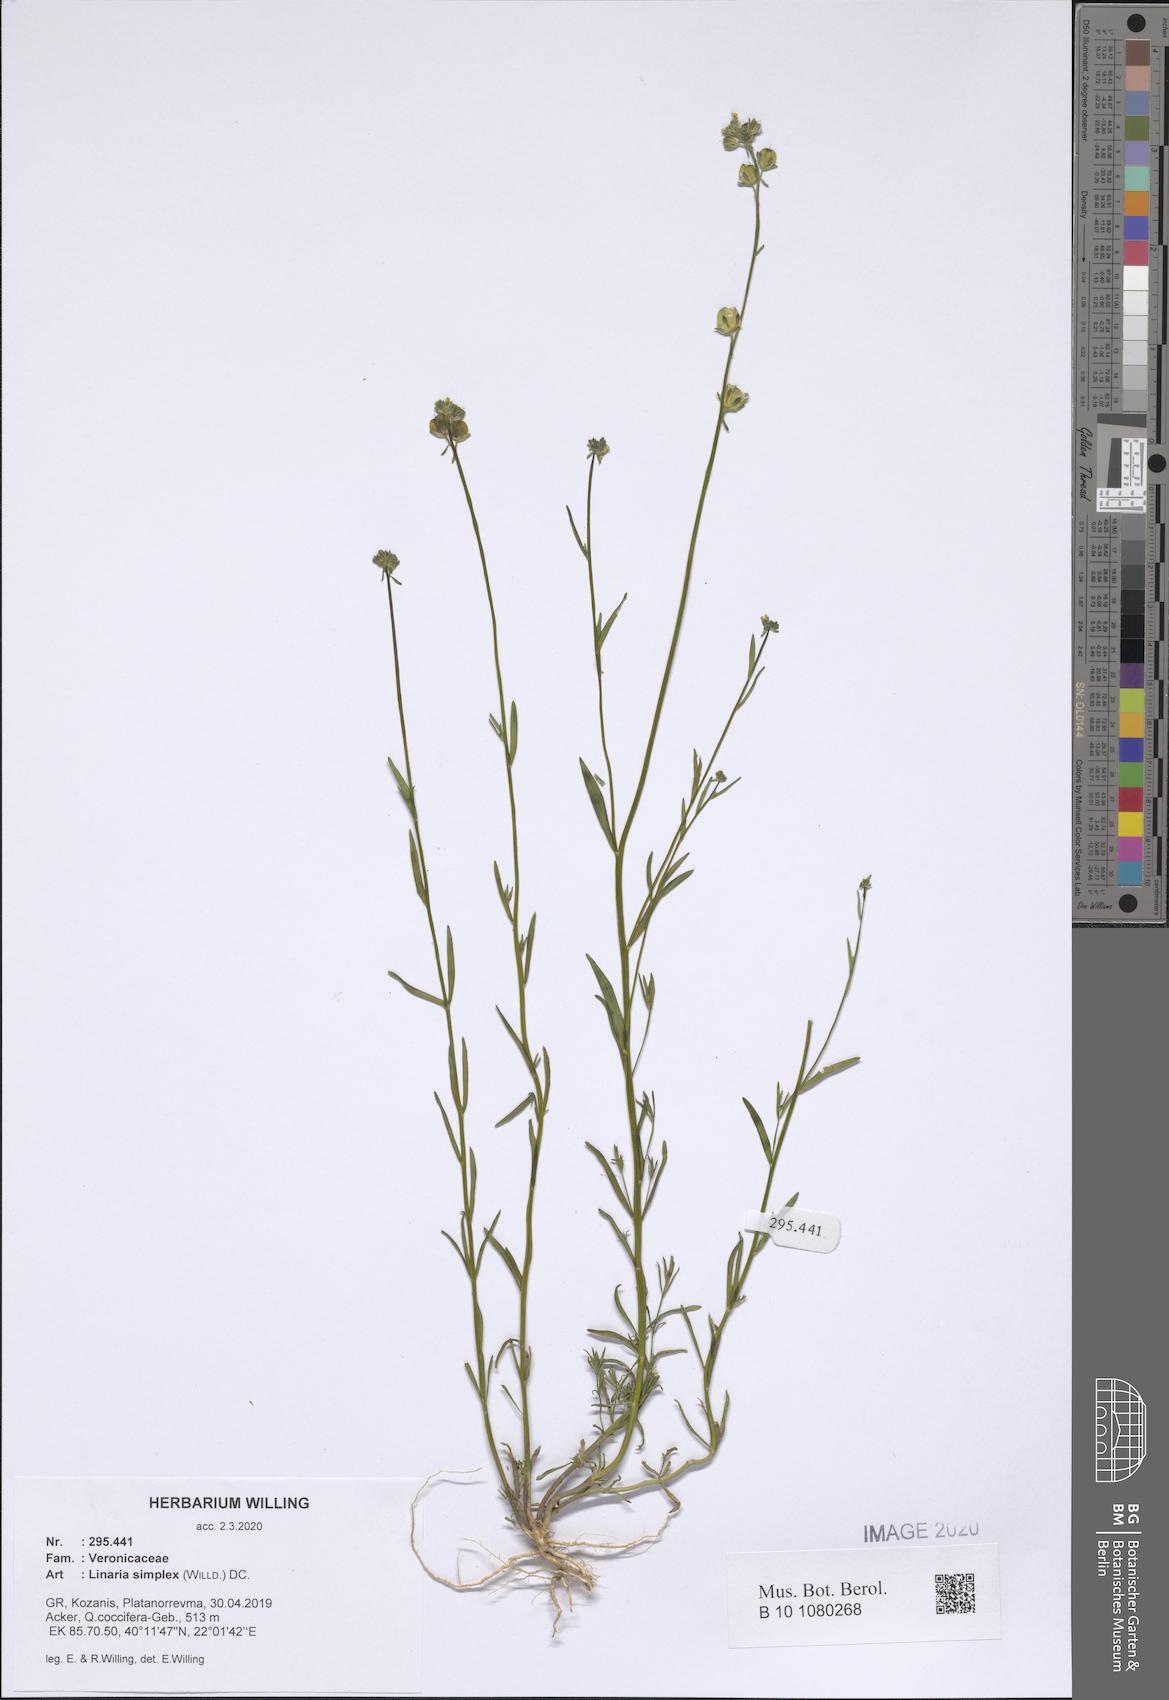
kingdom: Plantae
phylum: Tracheophyta
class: Magnoliopsida
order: Lamiales
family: Plantaginaceae
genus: Linaria
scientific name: Linaria simplex
